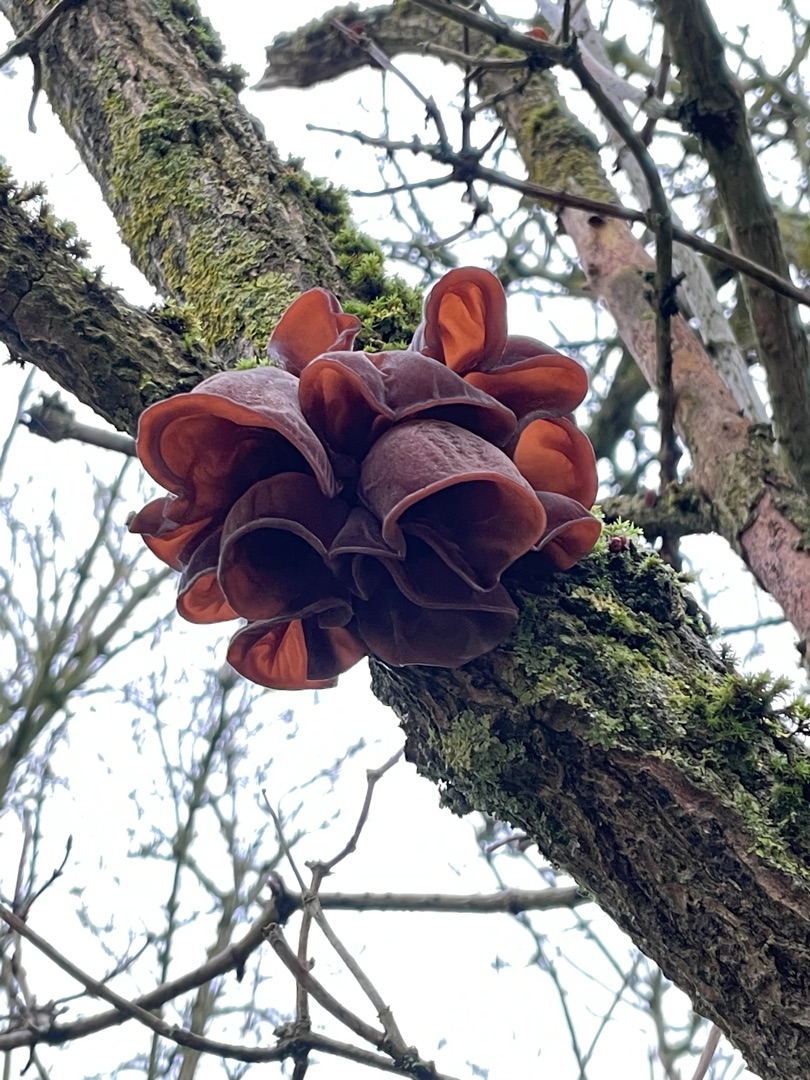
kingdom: Fungi
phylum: Basidiomycota
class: Agaricomycetes
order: Auriculariales
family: Auriculariaceae
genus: Auricularia
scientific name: Auricularia auricula-judae
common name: Almindelig judasøre
